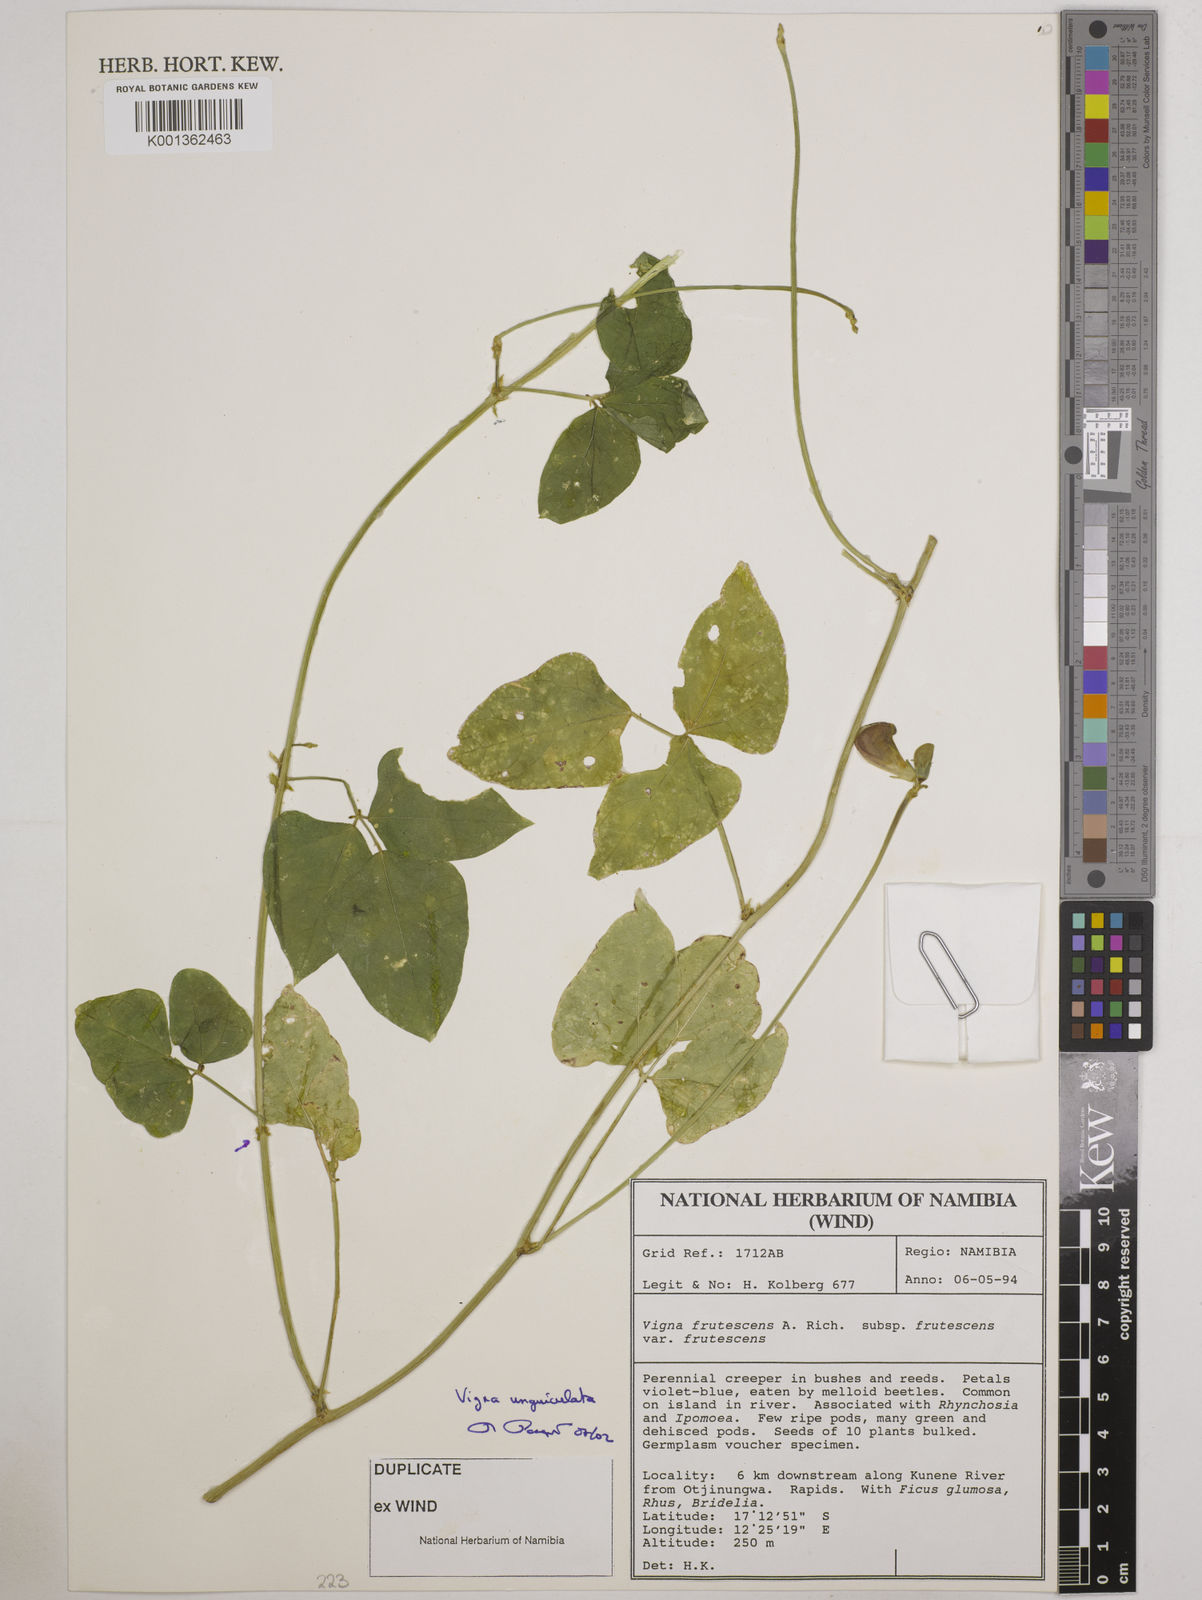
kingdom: Plantae
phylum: Tracheophyta
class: Magnoliopsida
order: Fabales
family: Fabaceae
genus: Vigna
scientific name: Vigna unguiculata
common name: Cowpea
